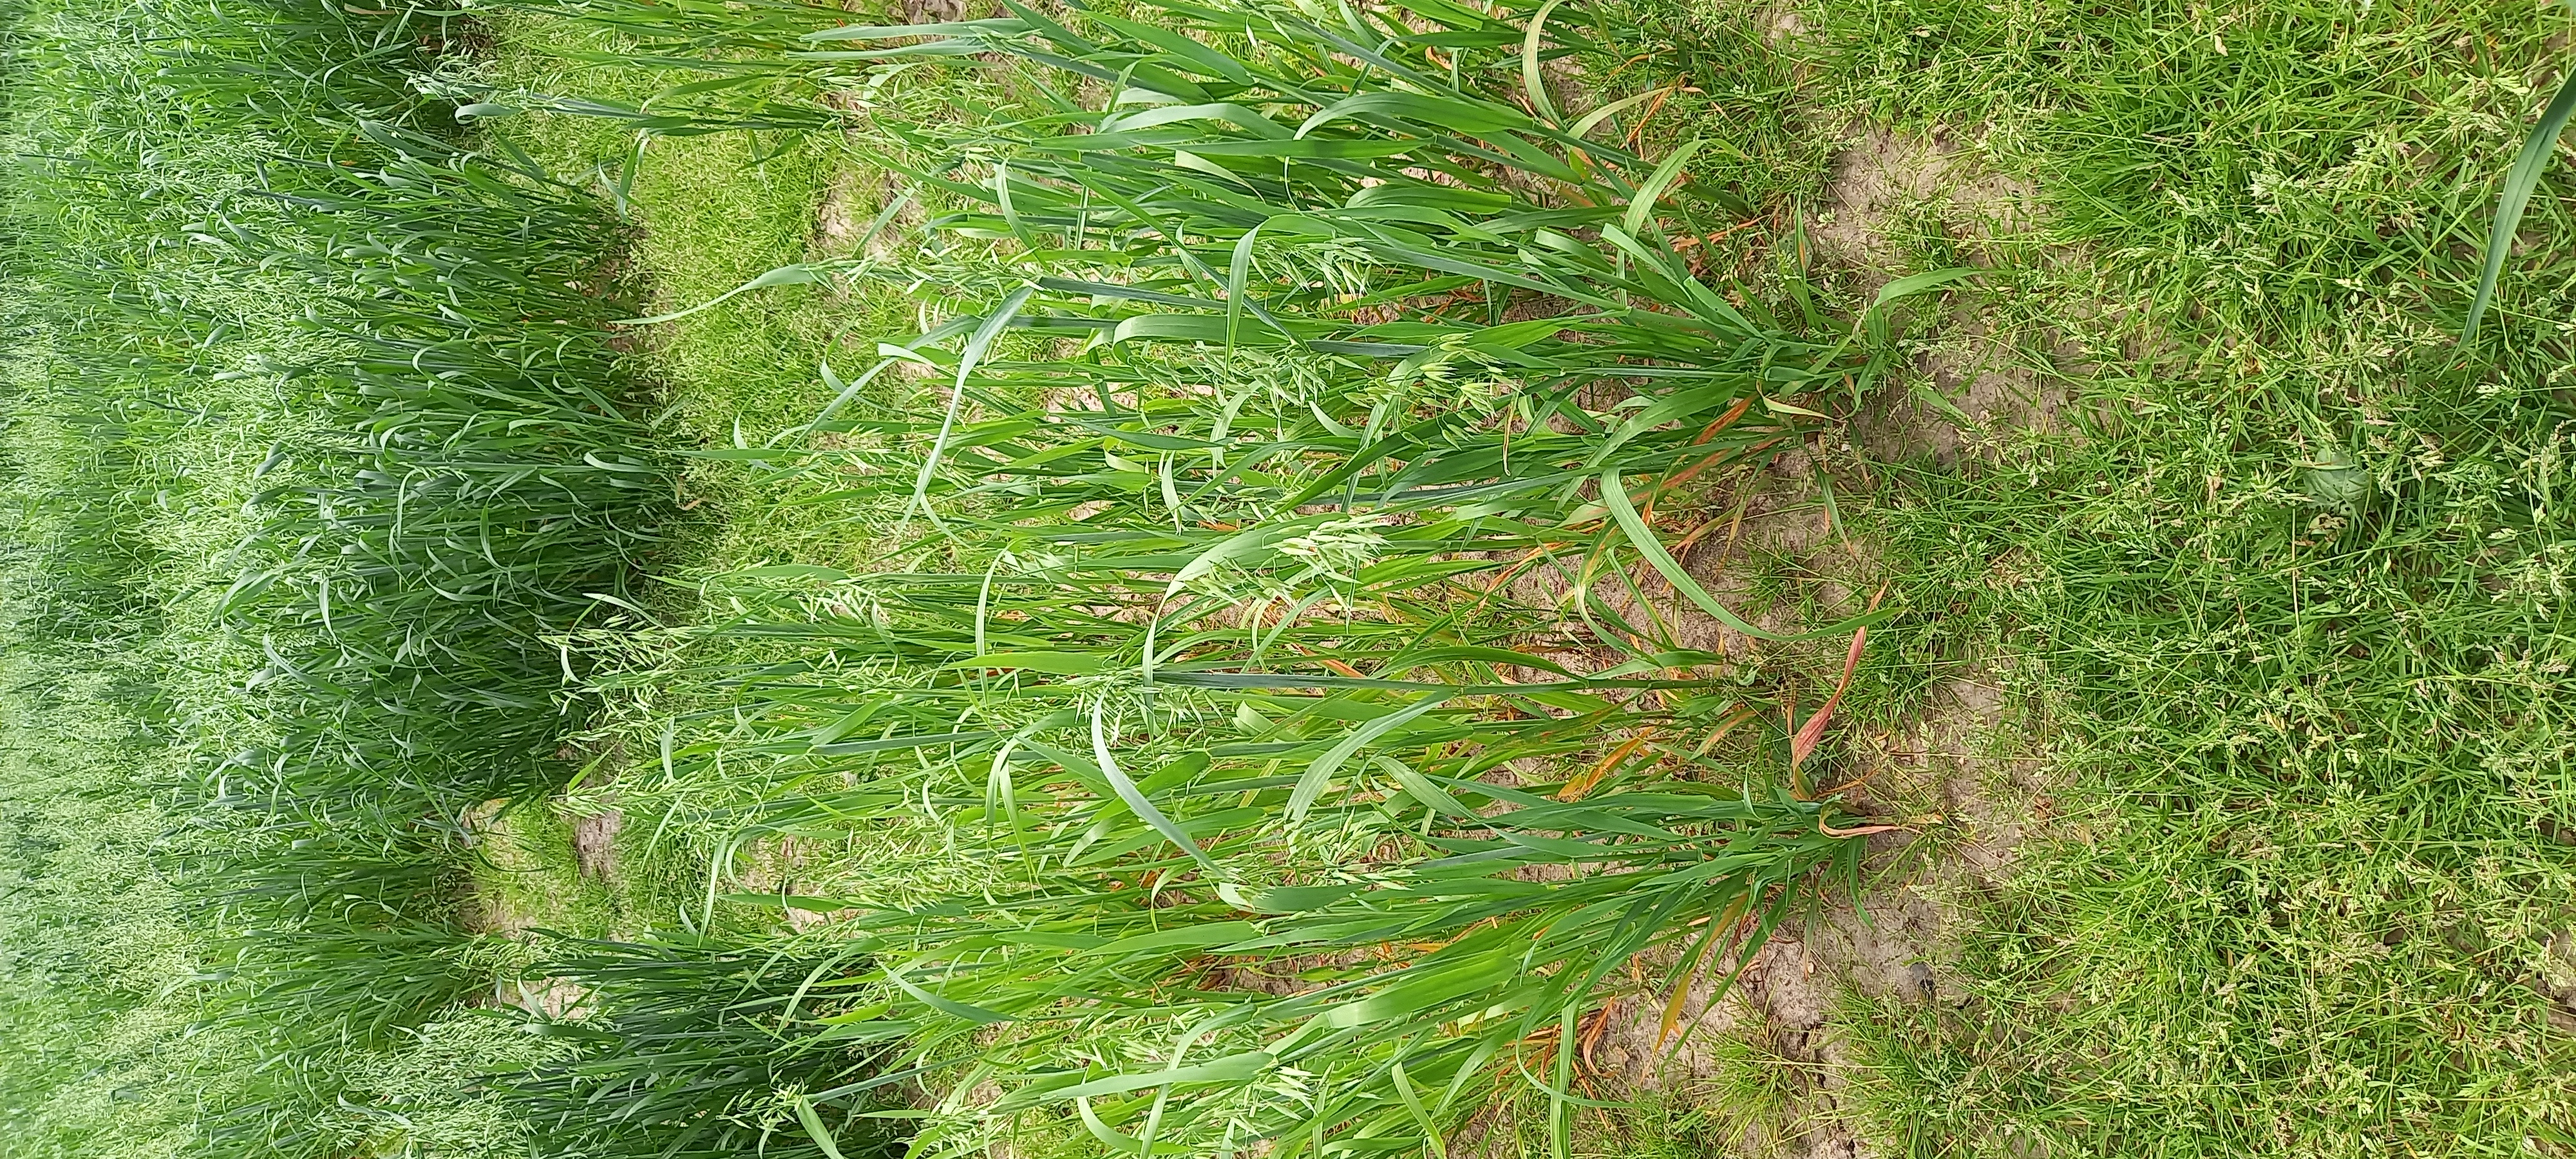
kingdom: Plantae
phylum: Tracheophyta
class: Liliopsida
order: Poales
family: Poaceae
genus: Avena
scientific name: Avena sativa
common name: Oat
